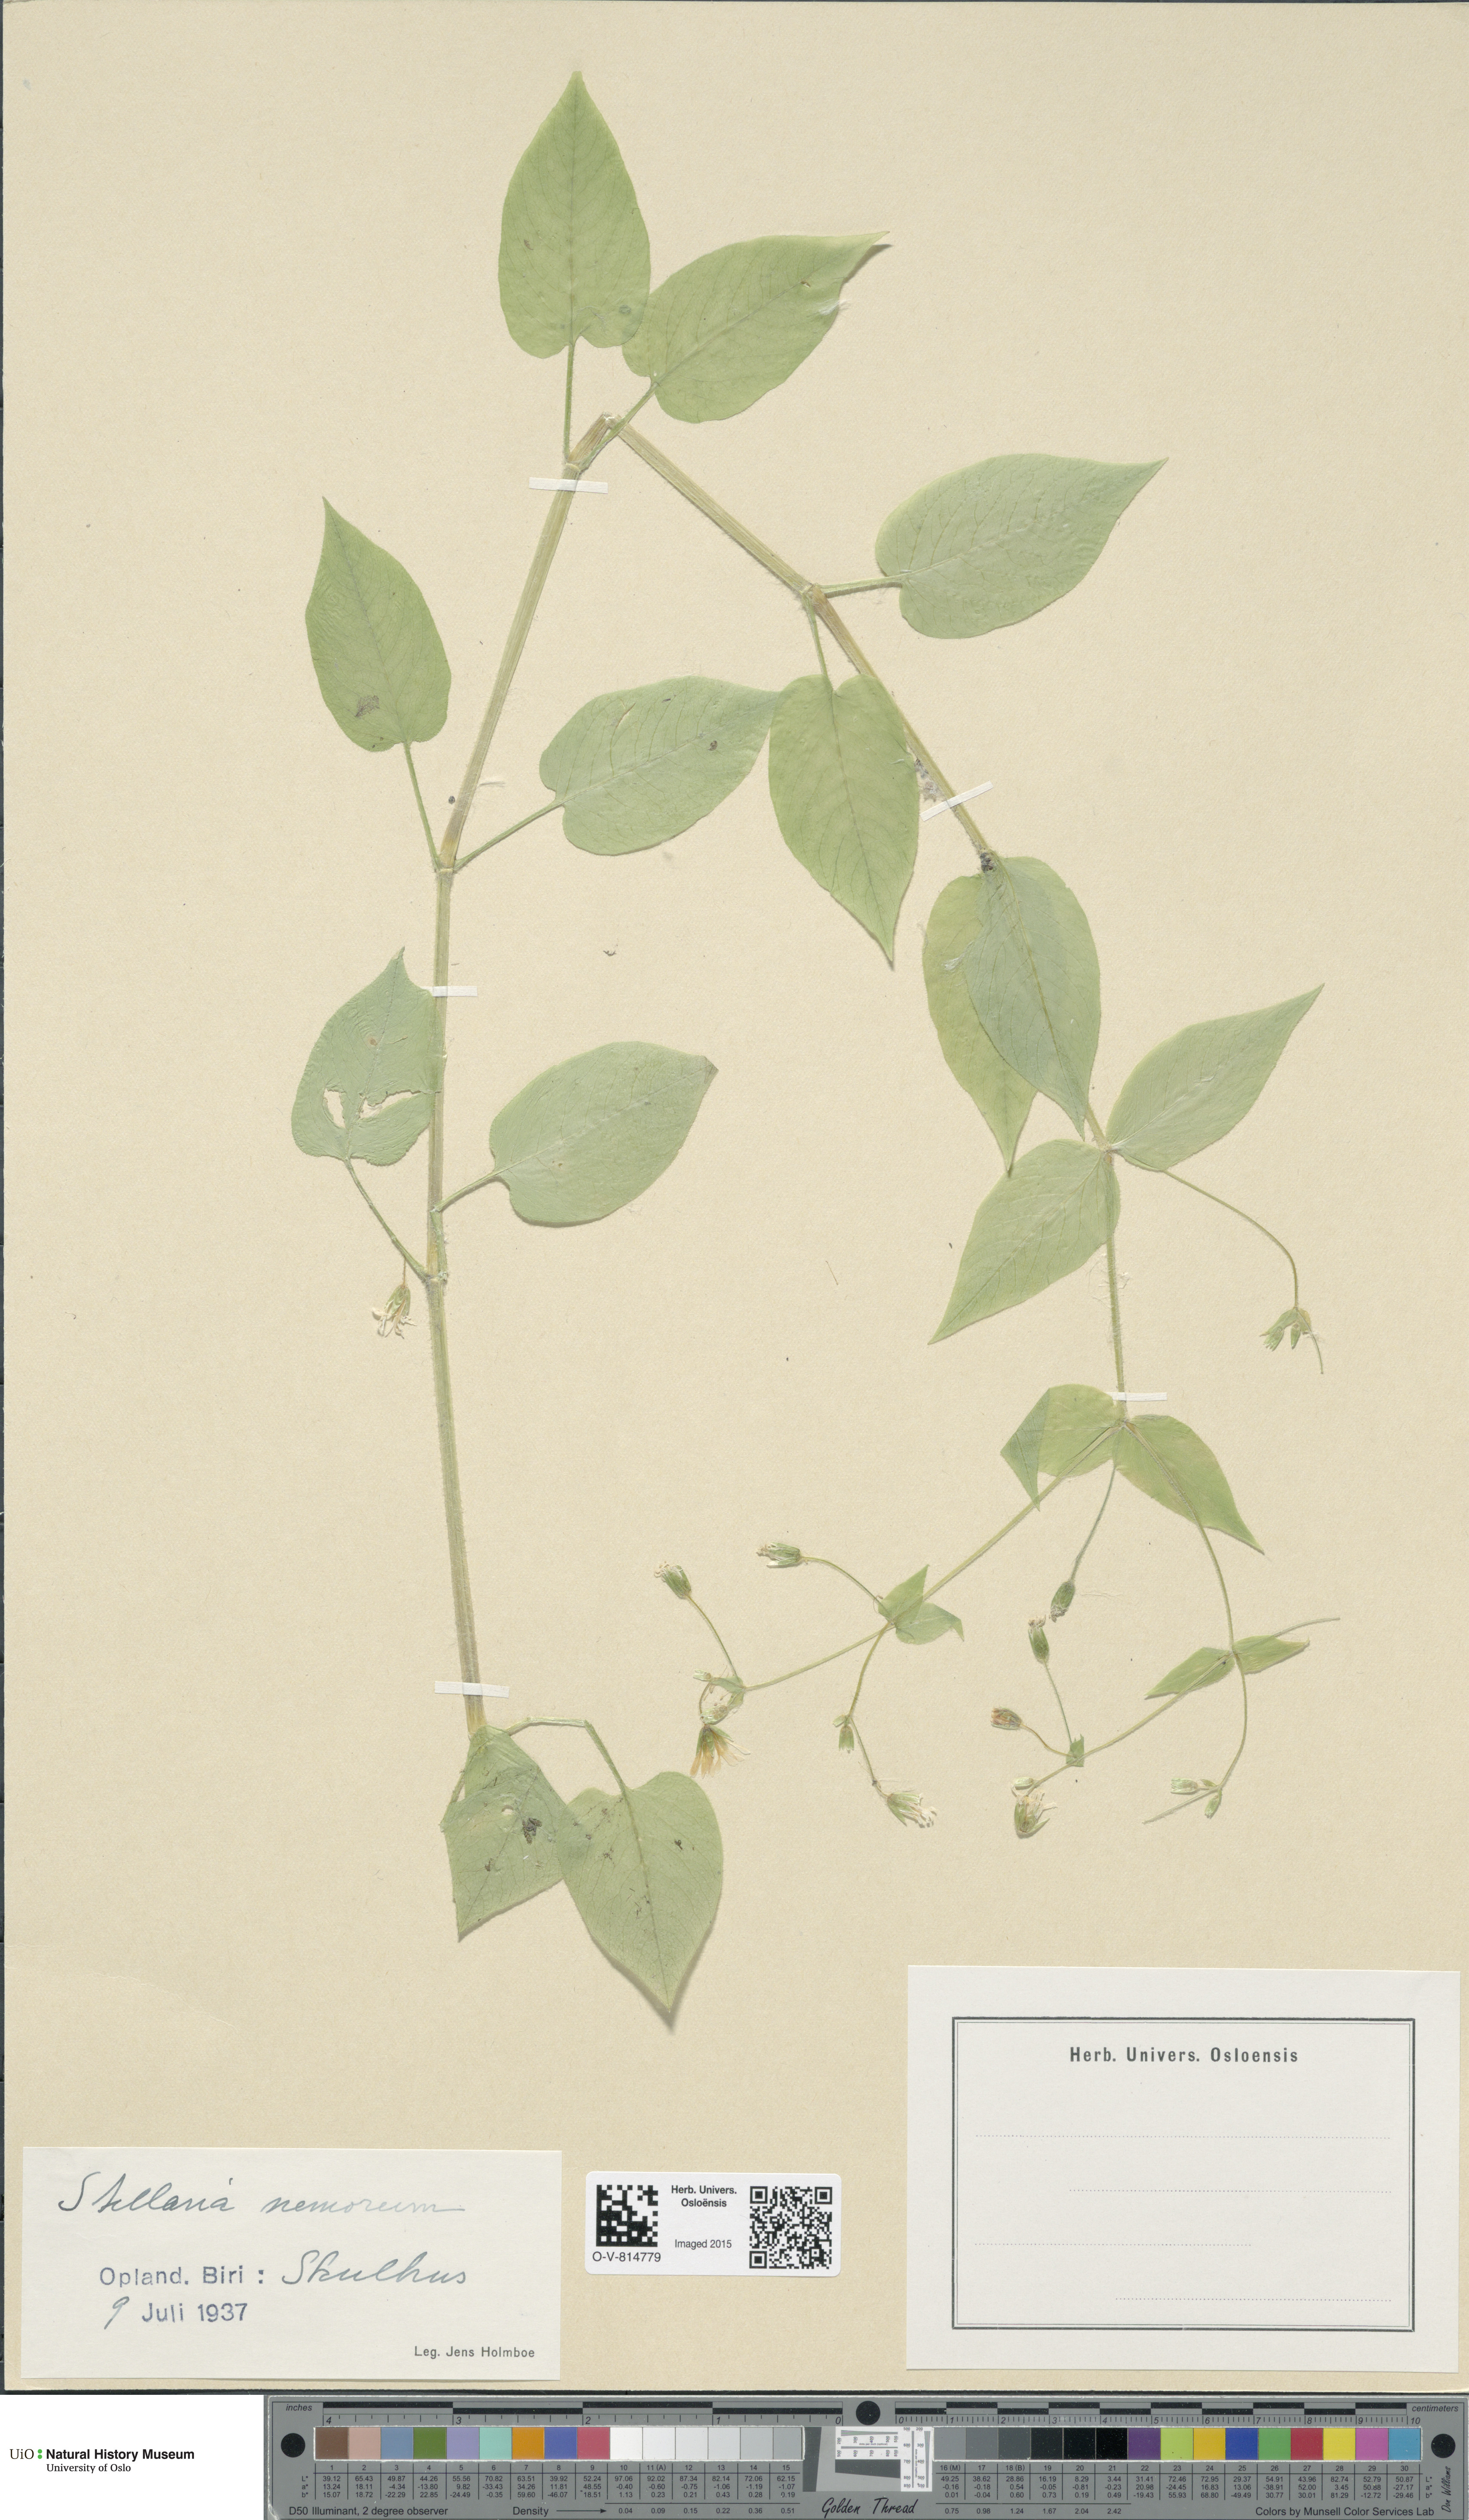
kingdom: Plantae
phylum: Tracheophyta
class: Magnoliopsida
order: Caryophyllales
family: Caryophyllaceae
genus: Stellaria
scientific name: Stellaria nemorum
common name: Wood stitchwort
